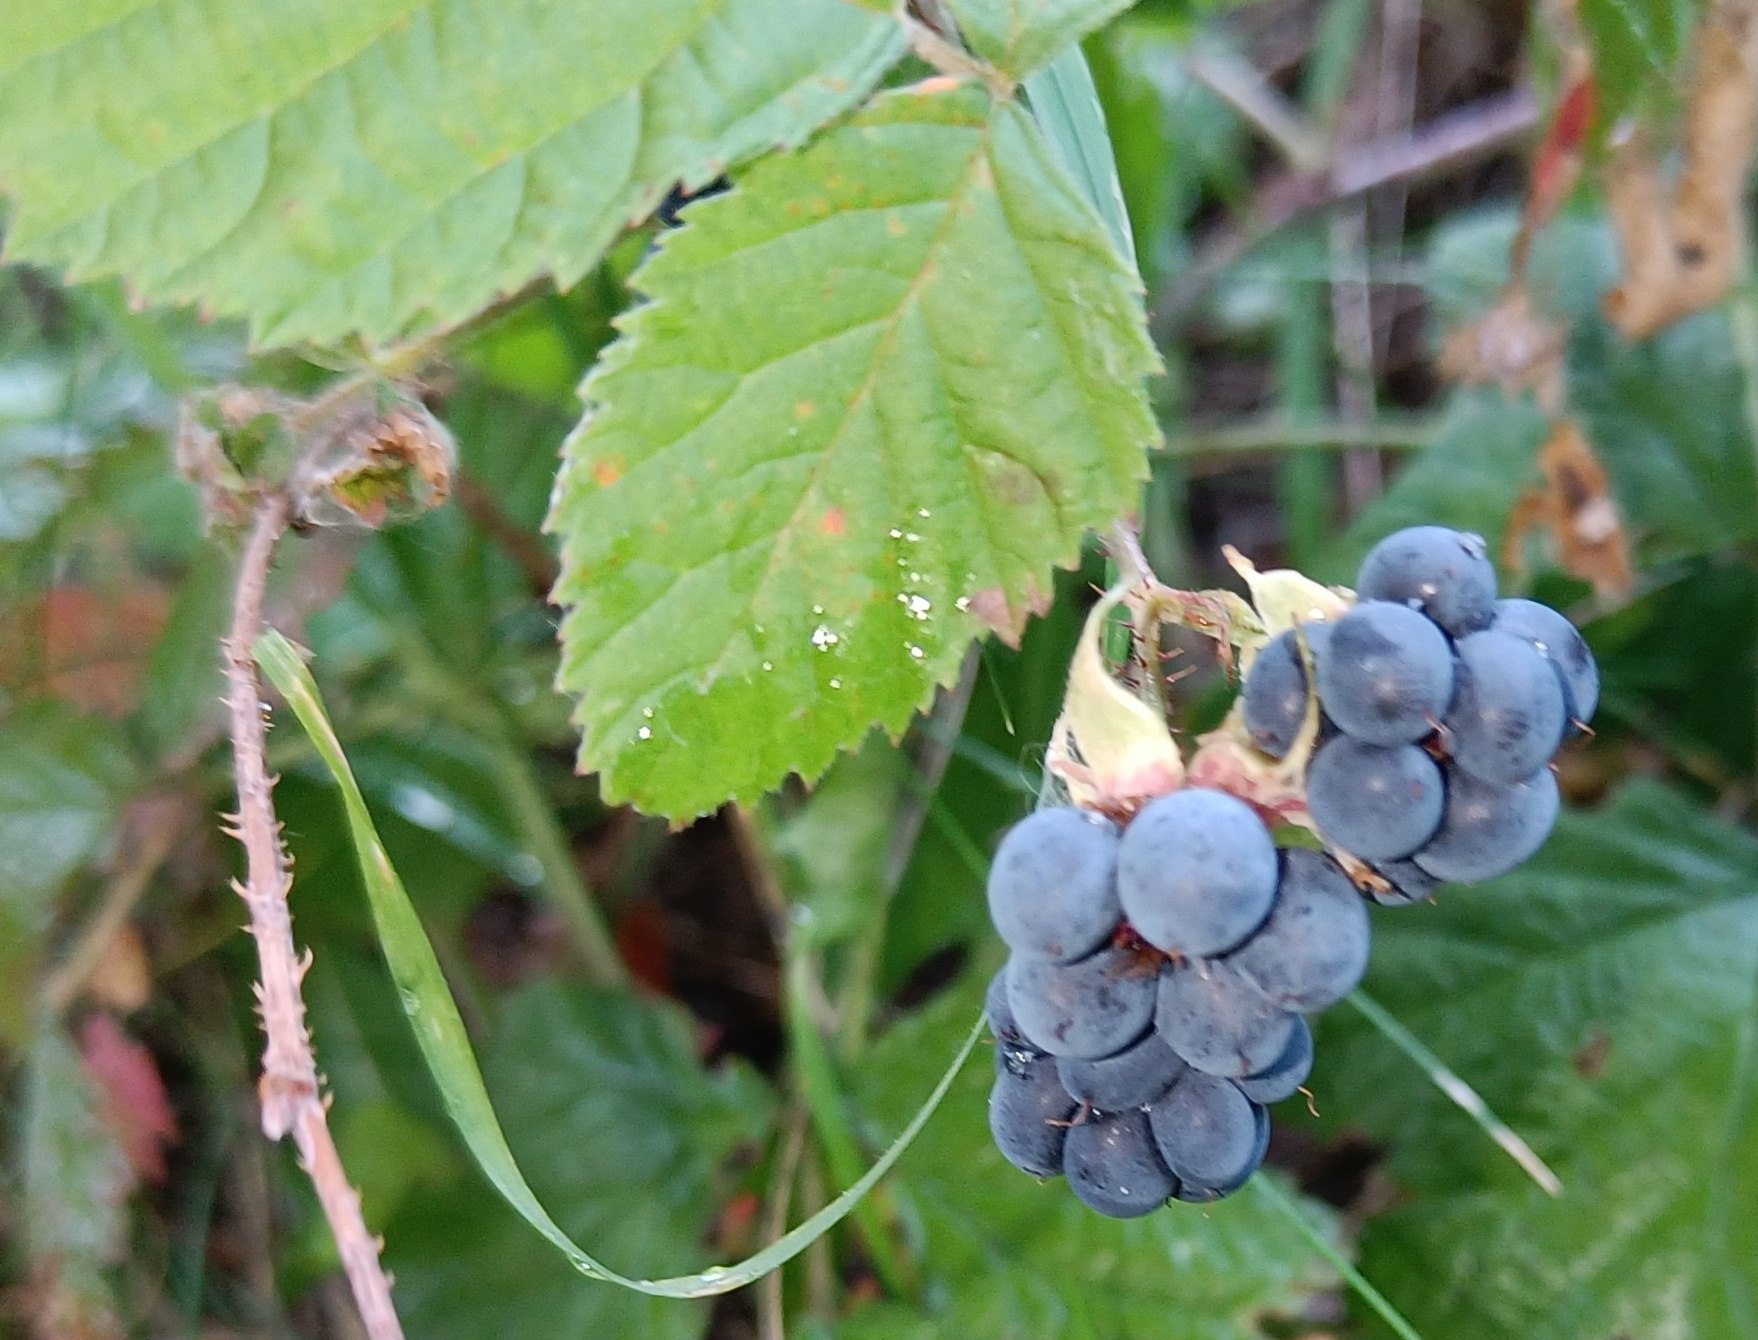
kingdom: Plantae
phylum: Tracheophyta
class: Magnoliopsida
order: Rosales
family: Rosaceae
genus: Rubus
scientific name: Rubus caesius
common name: Korbær
